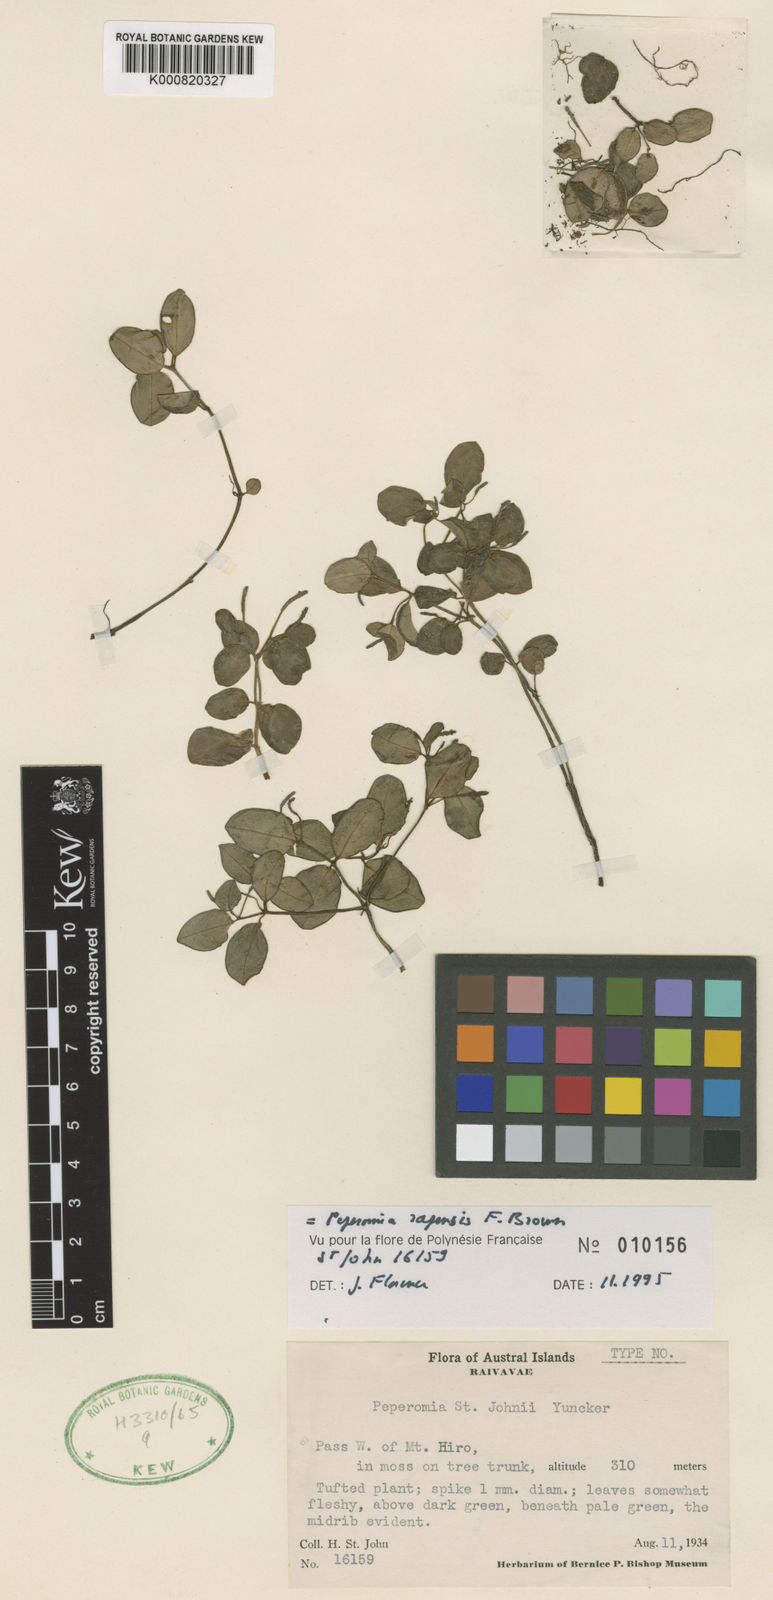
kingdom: Plantae
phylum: Tracheophyta
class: Magnoliopsida
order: Piperales
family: Piperaceae
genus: Peperomia
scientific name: Peperomia rapensis
